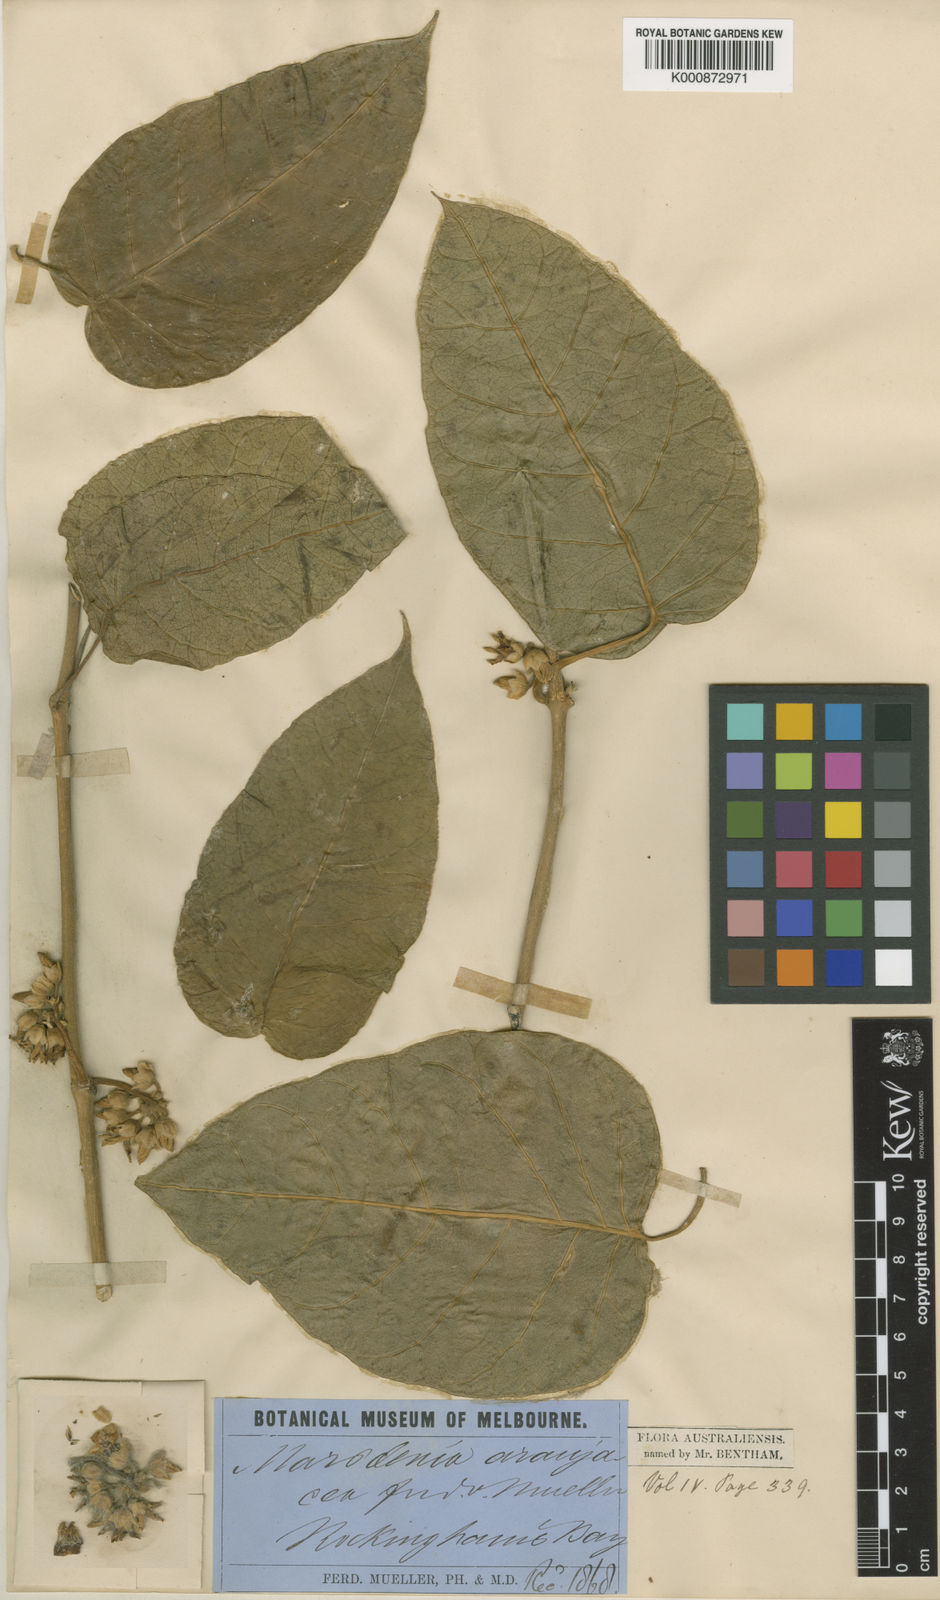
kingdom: Plantae
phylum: Tracheophyta
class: Magnoliopsida
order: Gentianales
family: Apocynaceae
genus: Leichhardtia
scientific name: Leichhardtia araujacea
